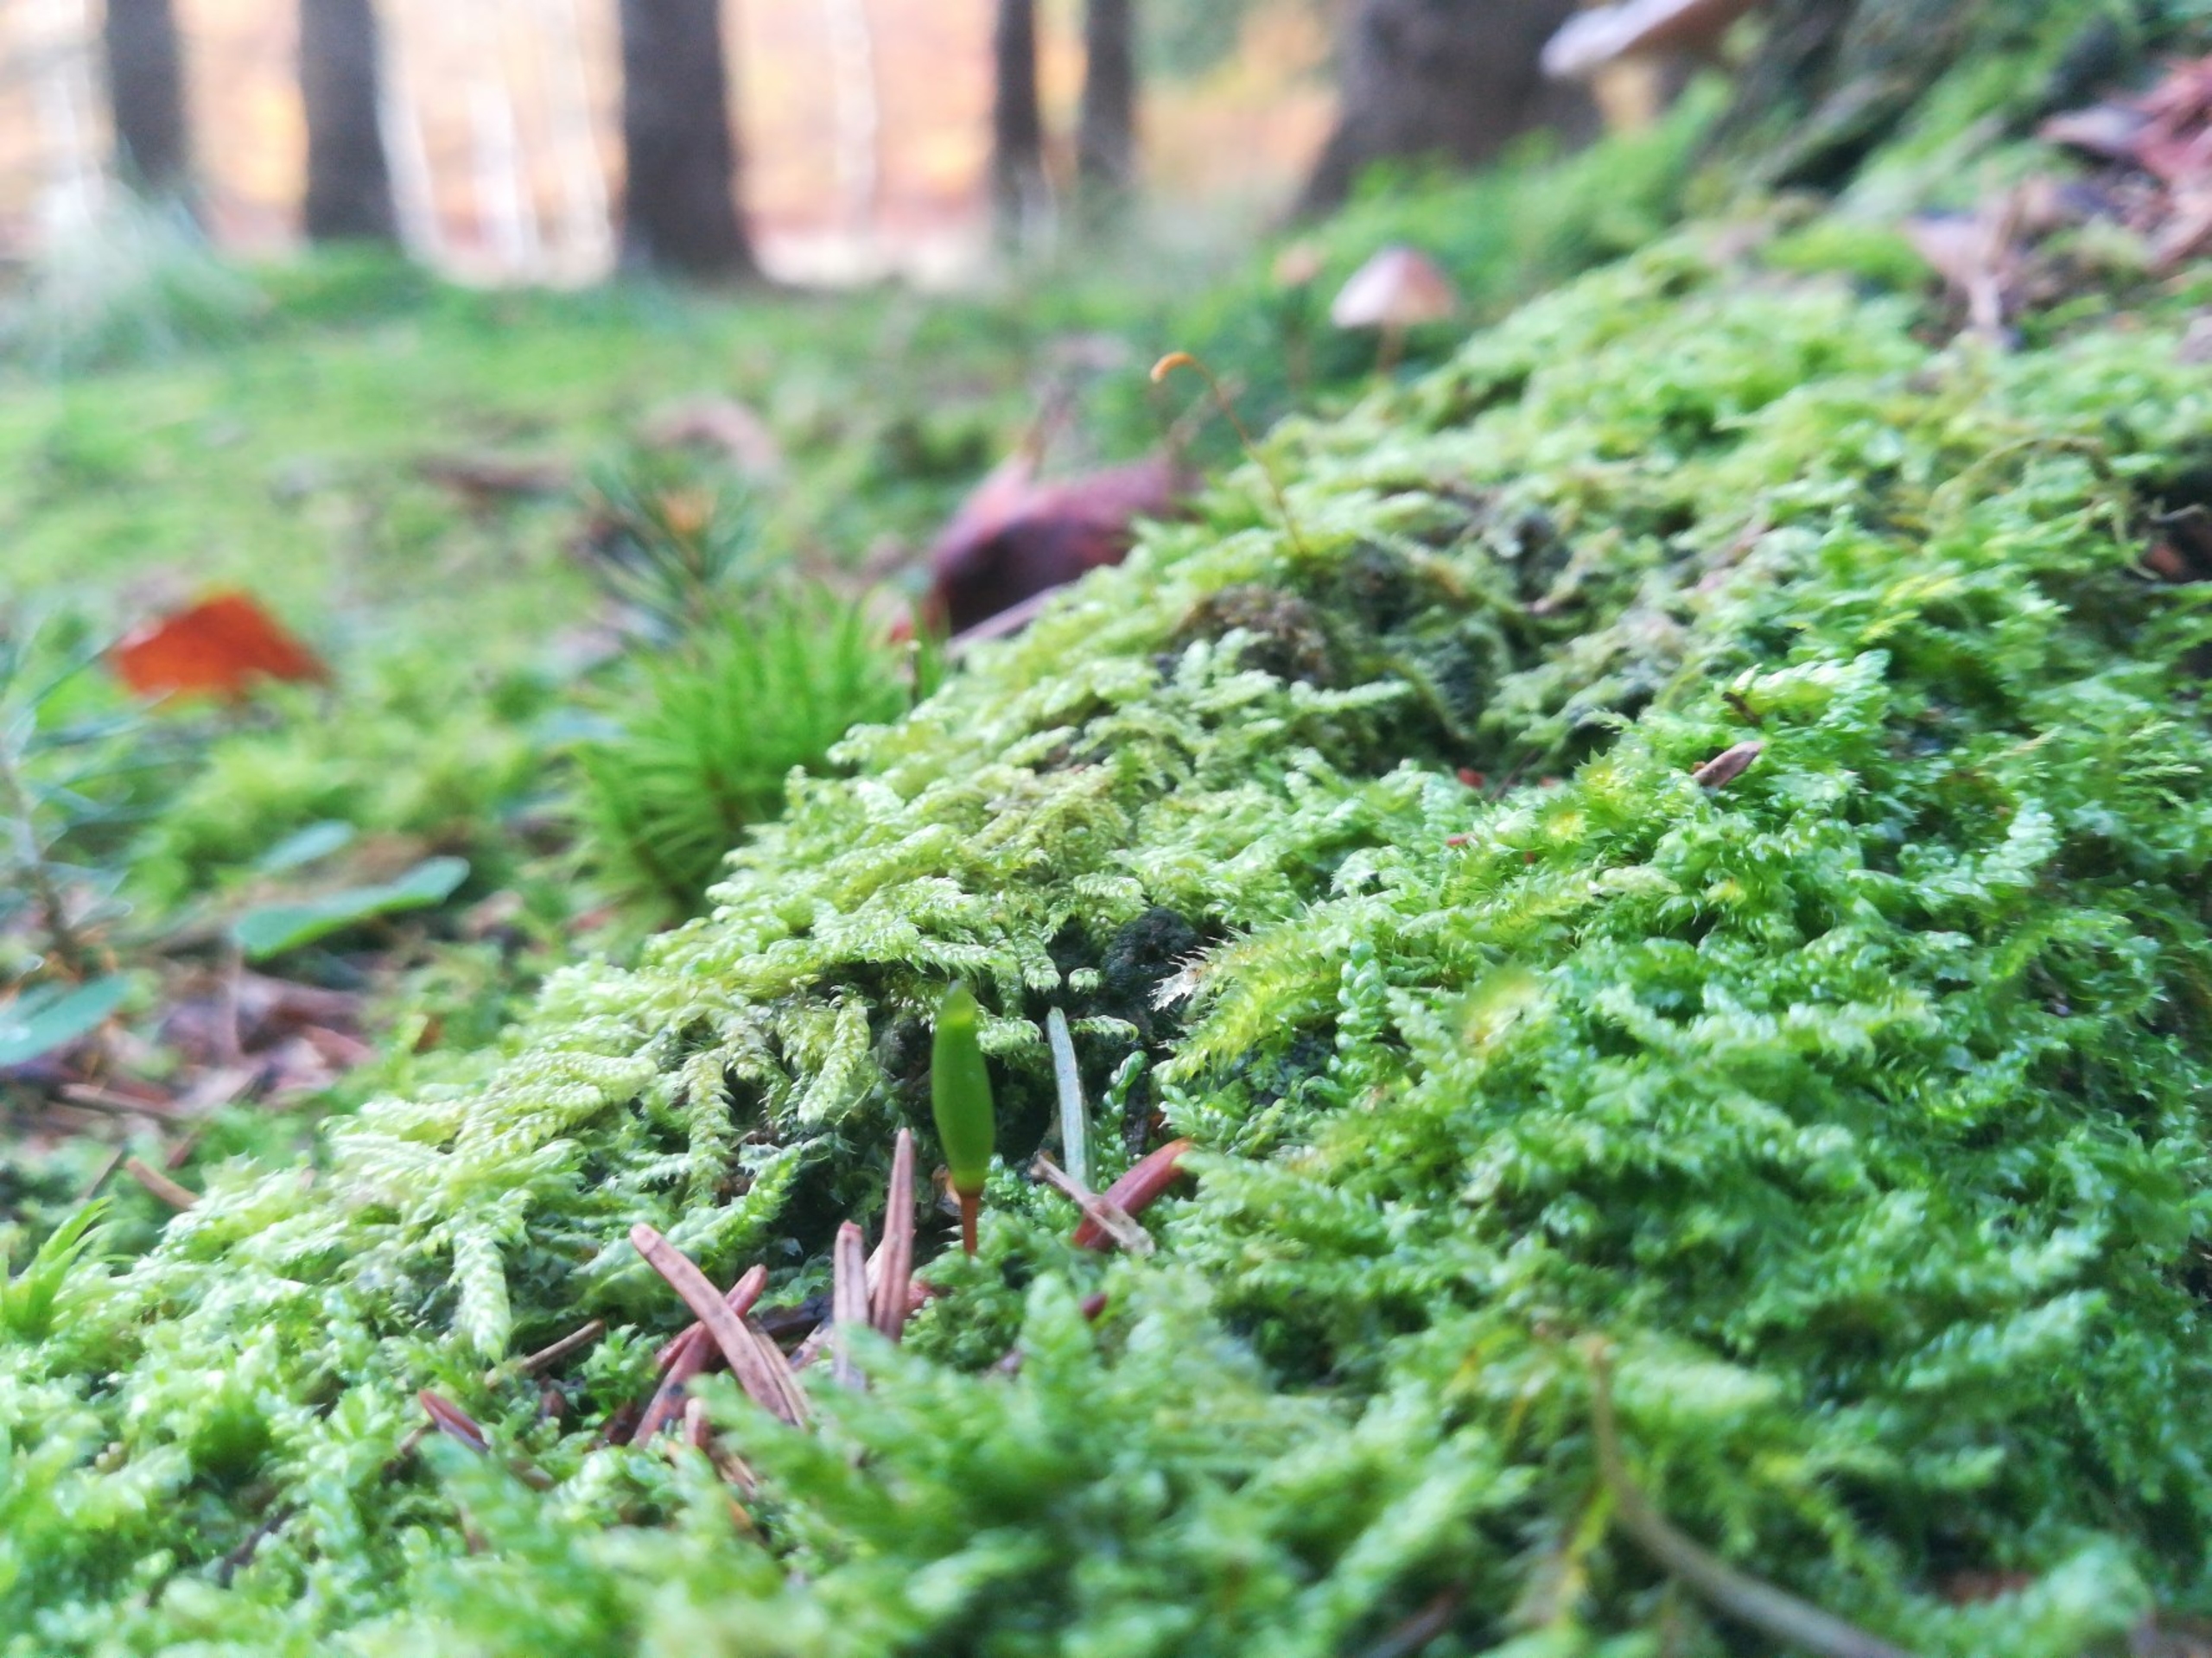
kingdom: Plantae
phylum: Bryophyta
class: Bryopsida
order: Buxbaumiales
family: Buxbaumiaceae
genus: Buxbaumia
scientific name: Buxbaumia viridis
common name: Grøn buxbaumia
